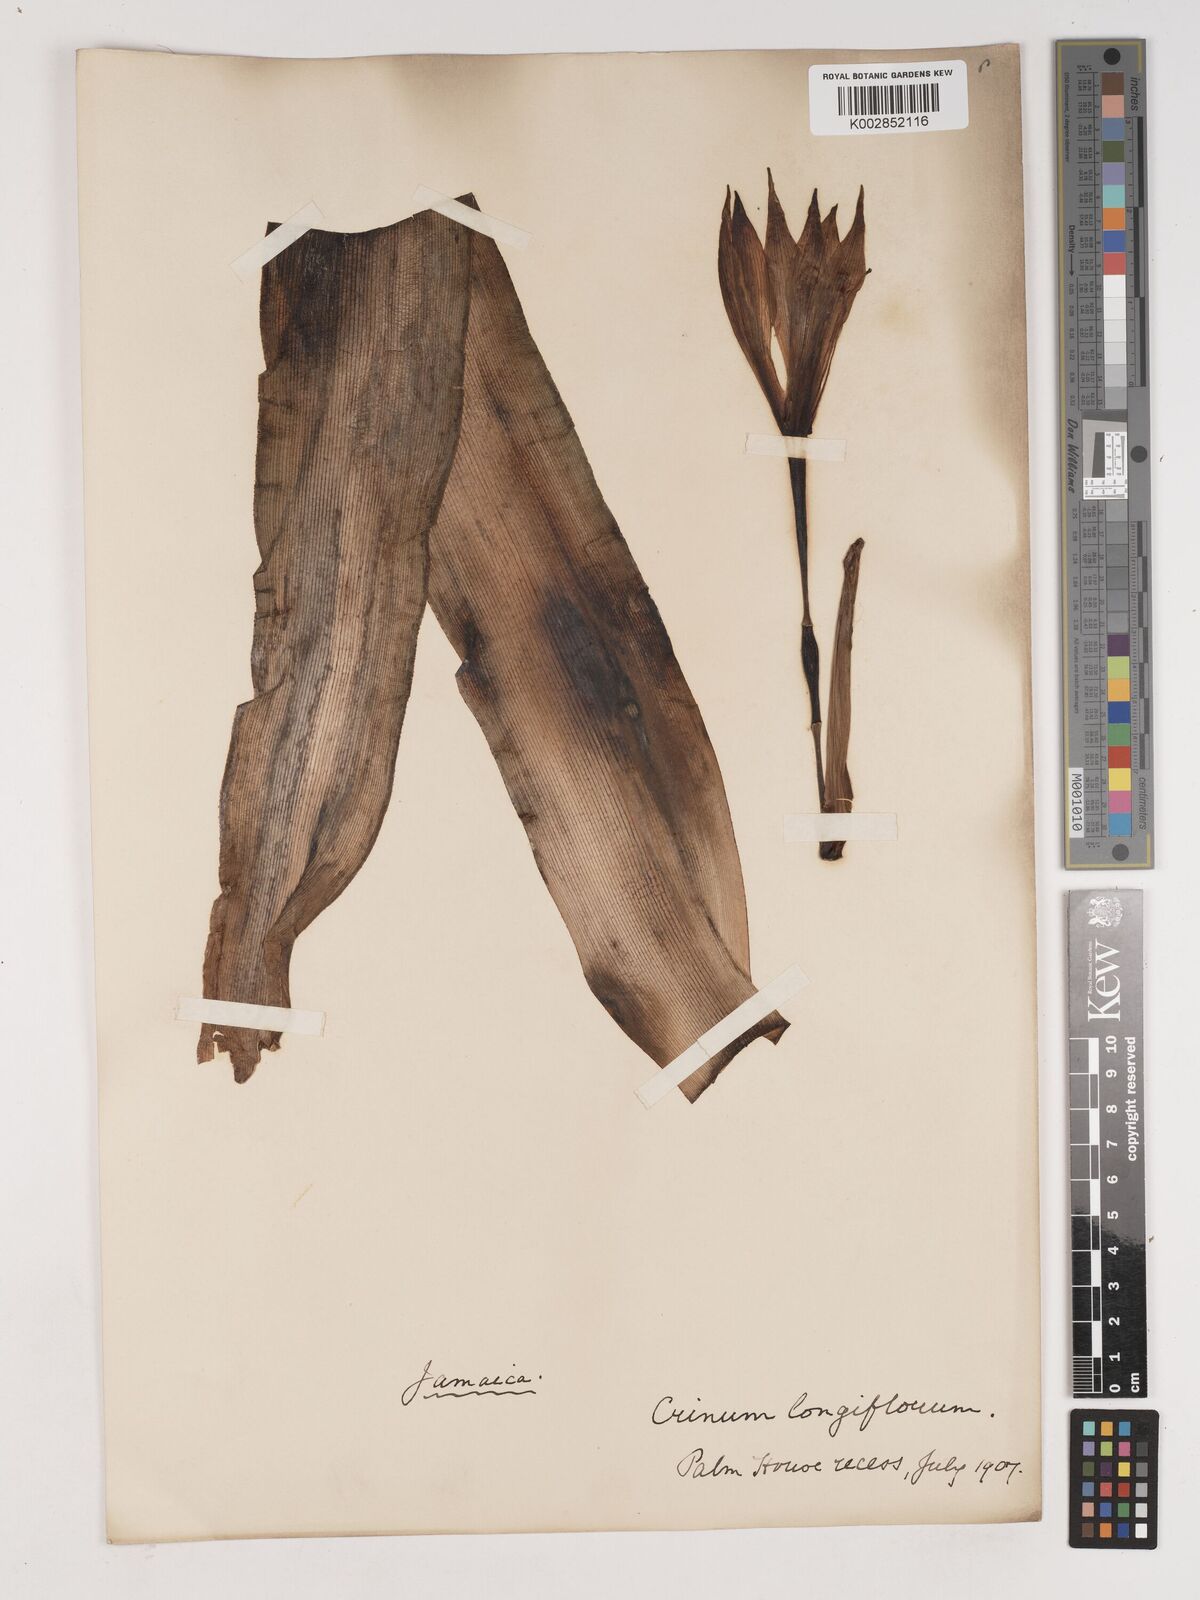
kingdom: Plantae
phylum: Tracheophyta
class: Liliopsida
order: Asparagales
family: Amaryllidaceae
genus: Ammocharis
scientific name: Ammocharis longifolia
